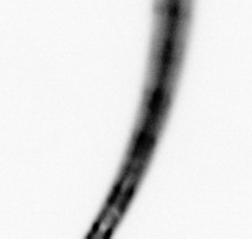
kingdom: Chromista
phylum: Ochrophyta
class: Bacillariophyceae
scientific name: Bacillariophyceae
